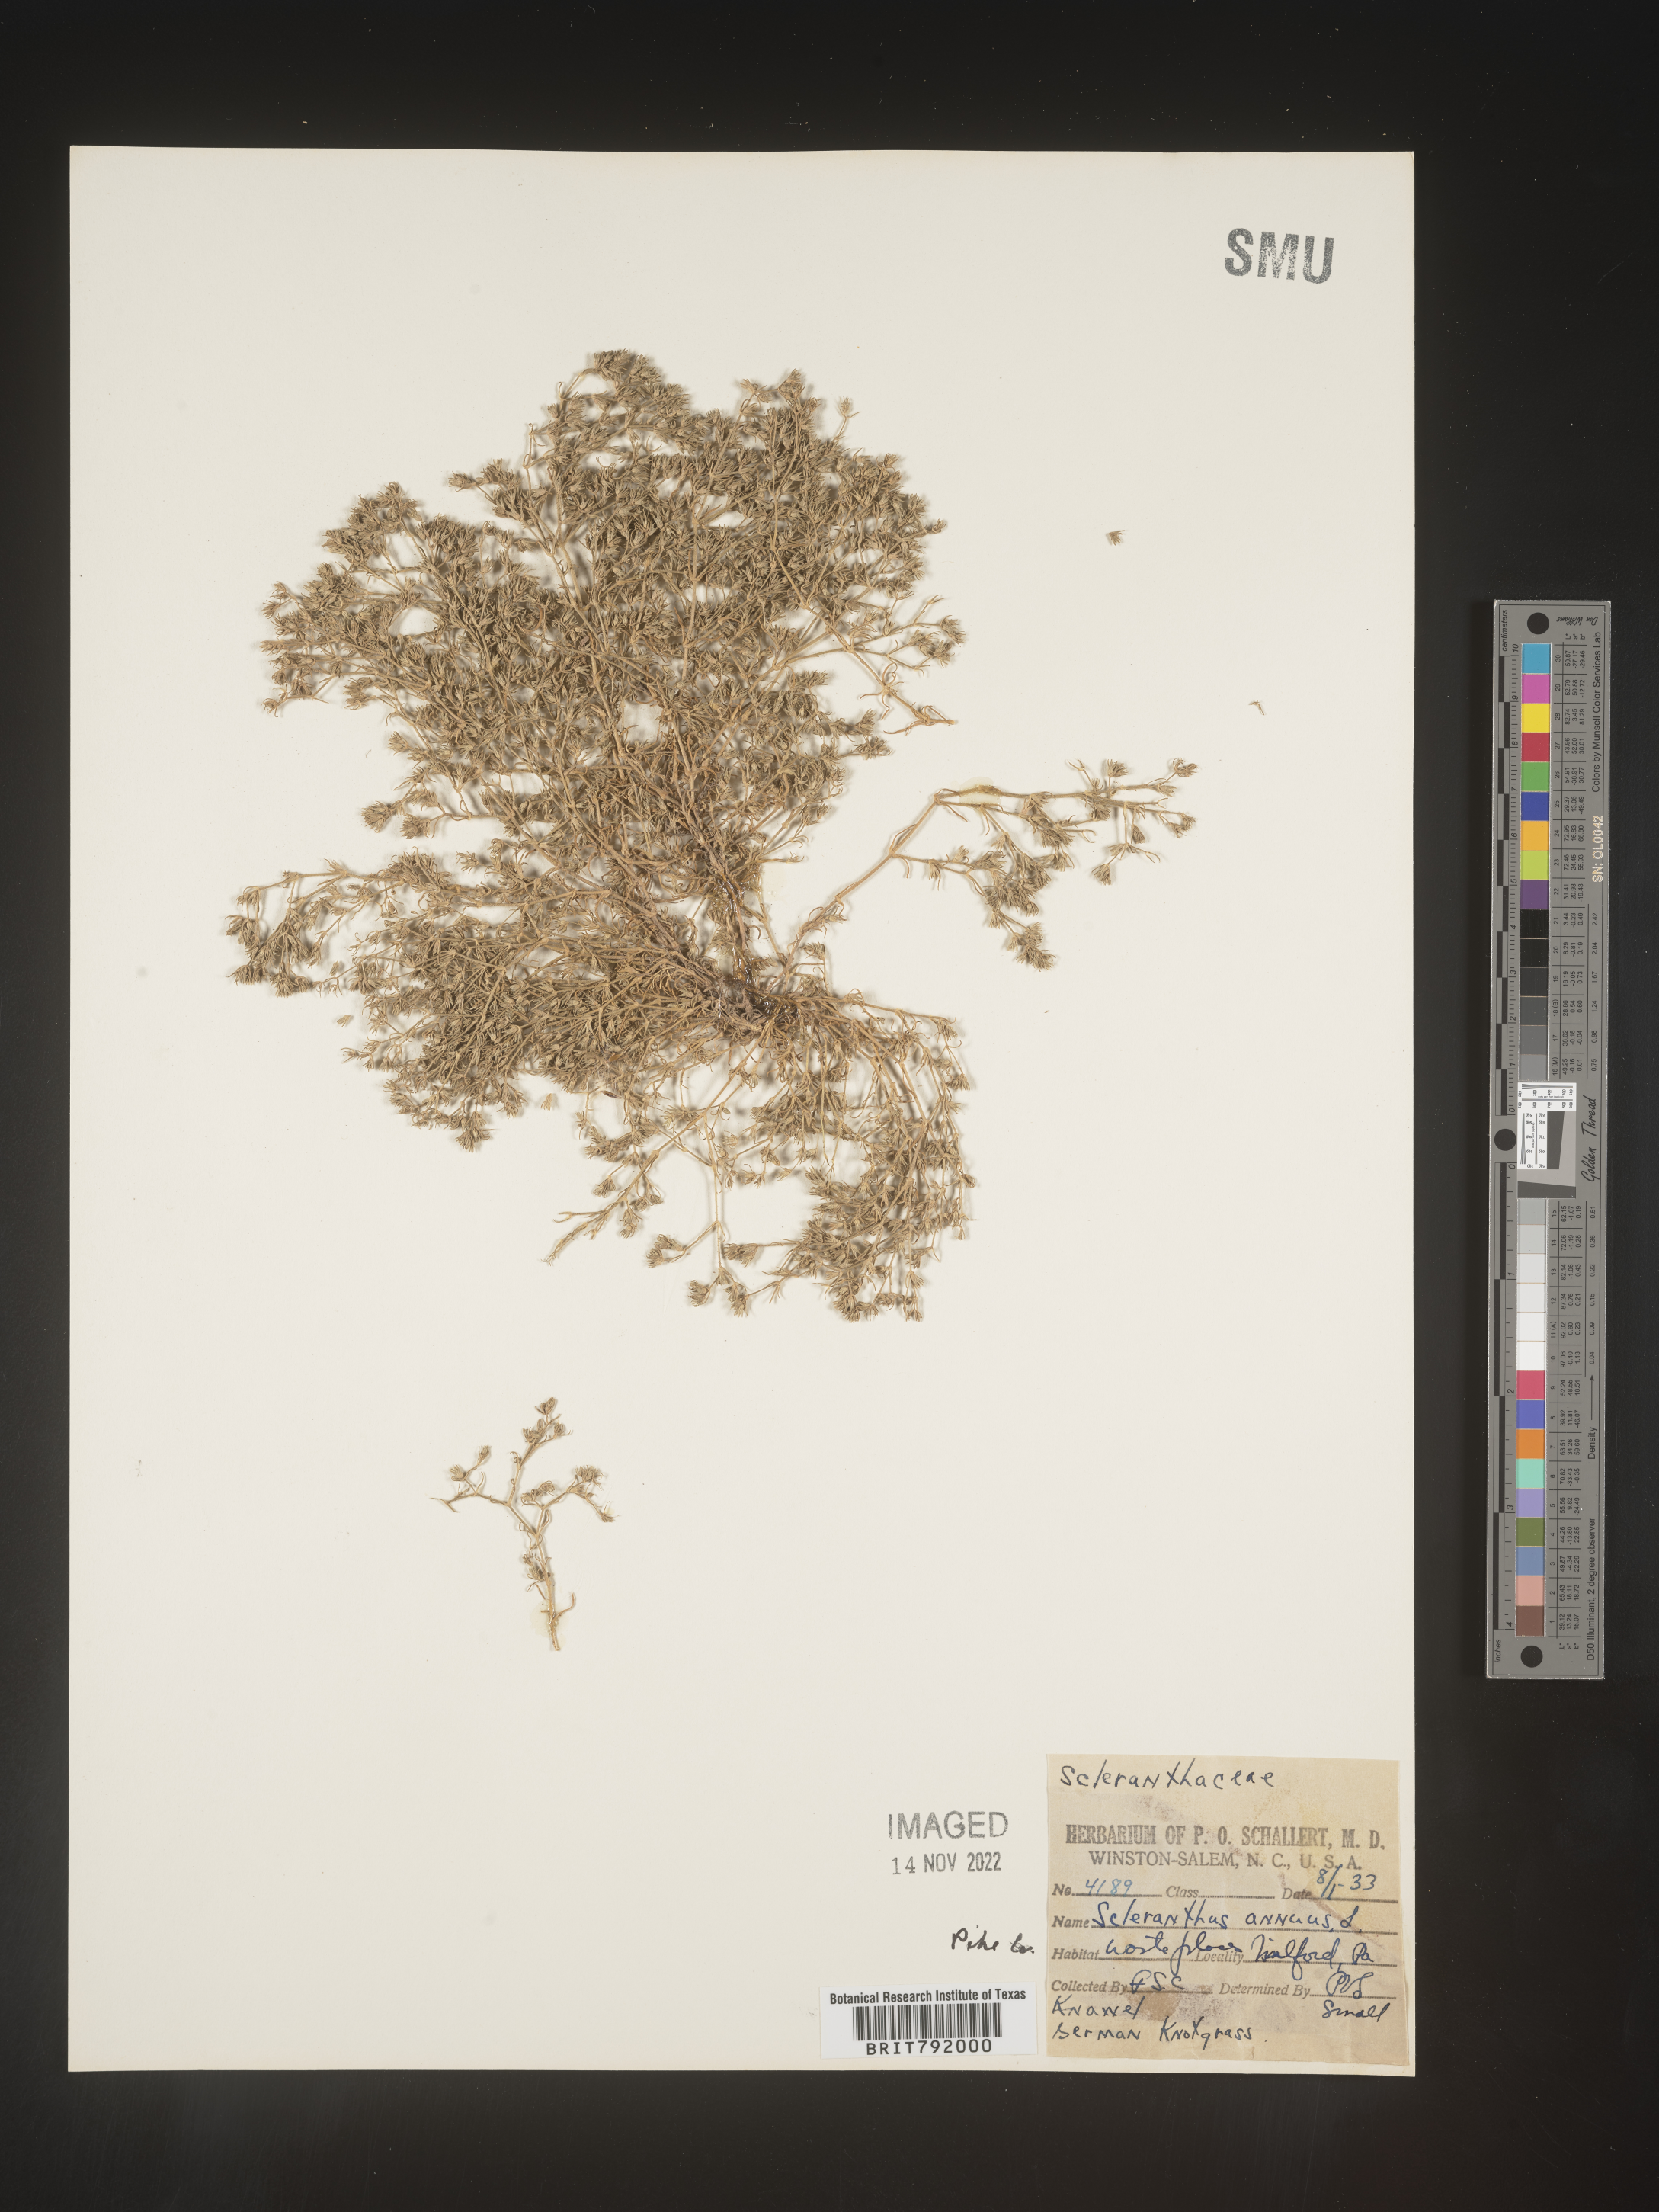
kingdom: Plantae
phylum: Tracheophyta
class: Magnoliopsida
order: Caryophyllales
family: Caryophyllaceae
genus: Scleranthus
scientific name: Scleranthus
